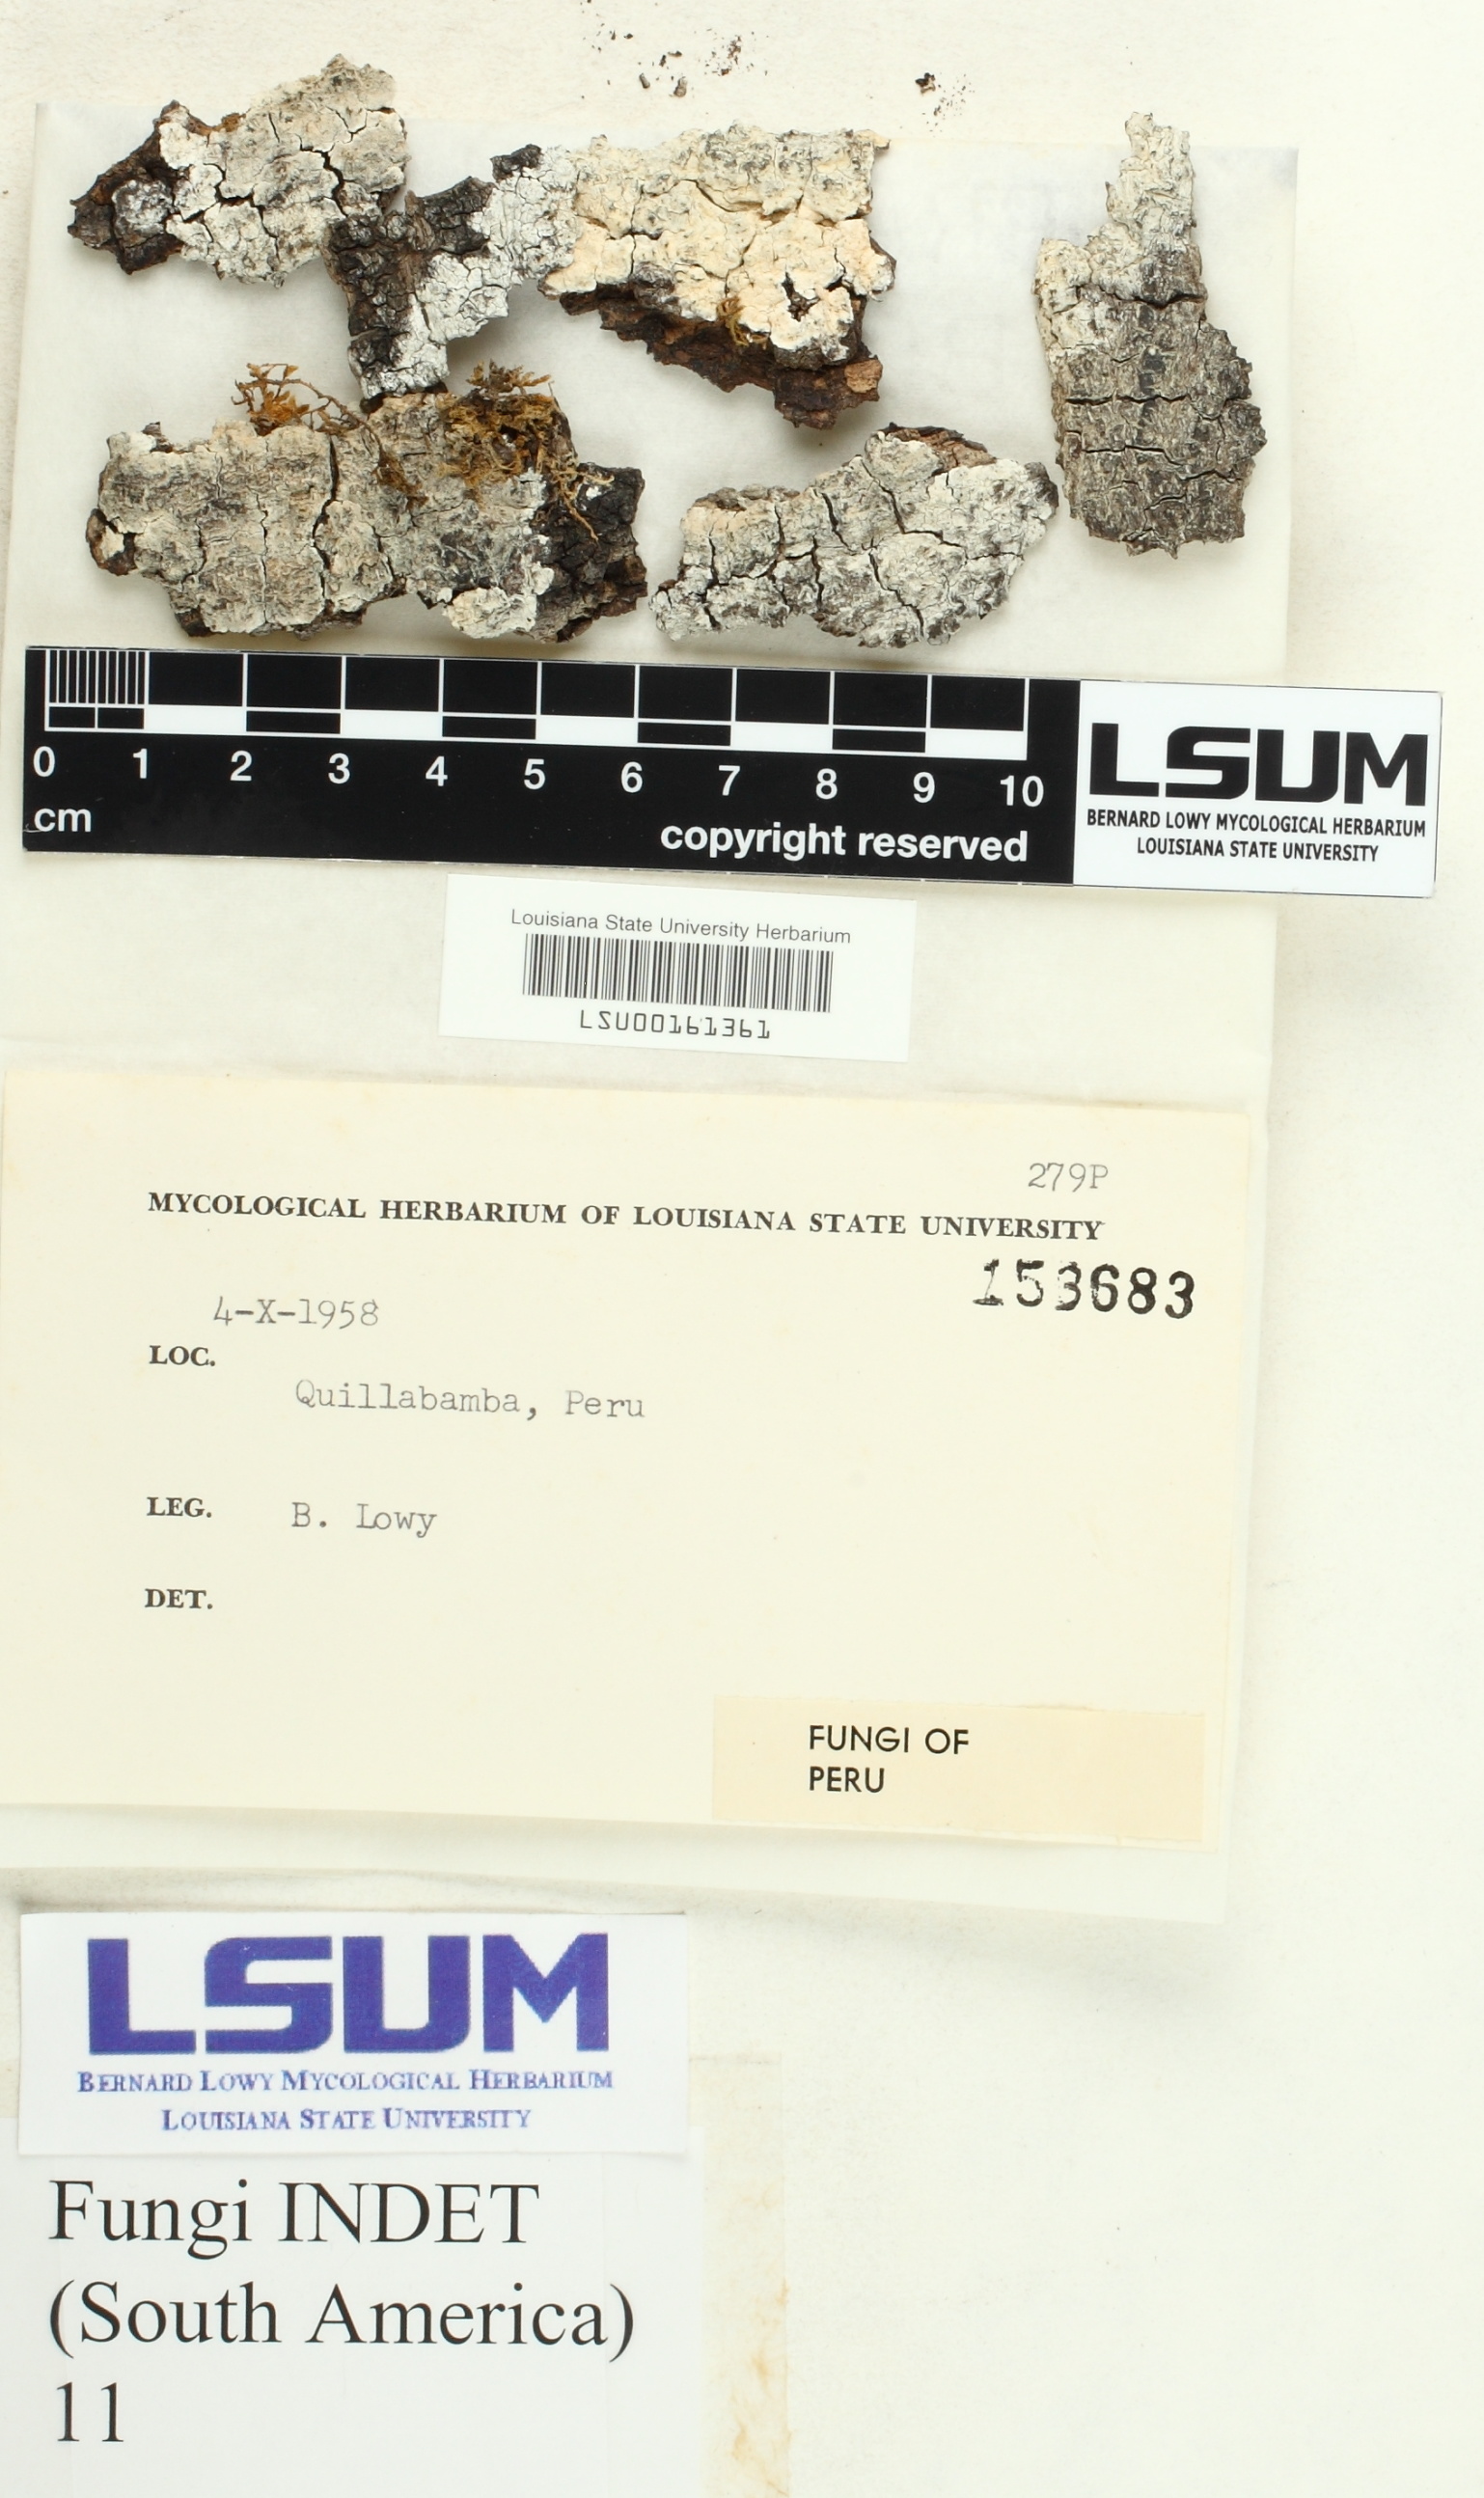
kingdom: Fungi
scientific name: Fungi
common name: Fungi
